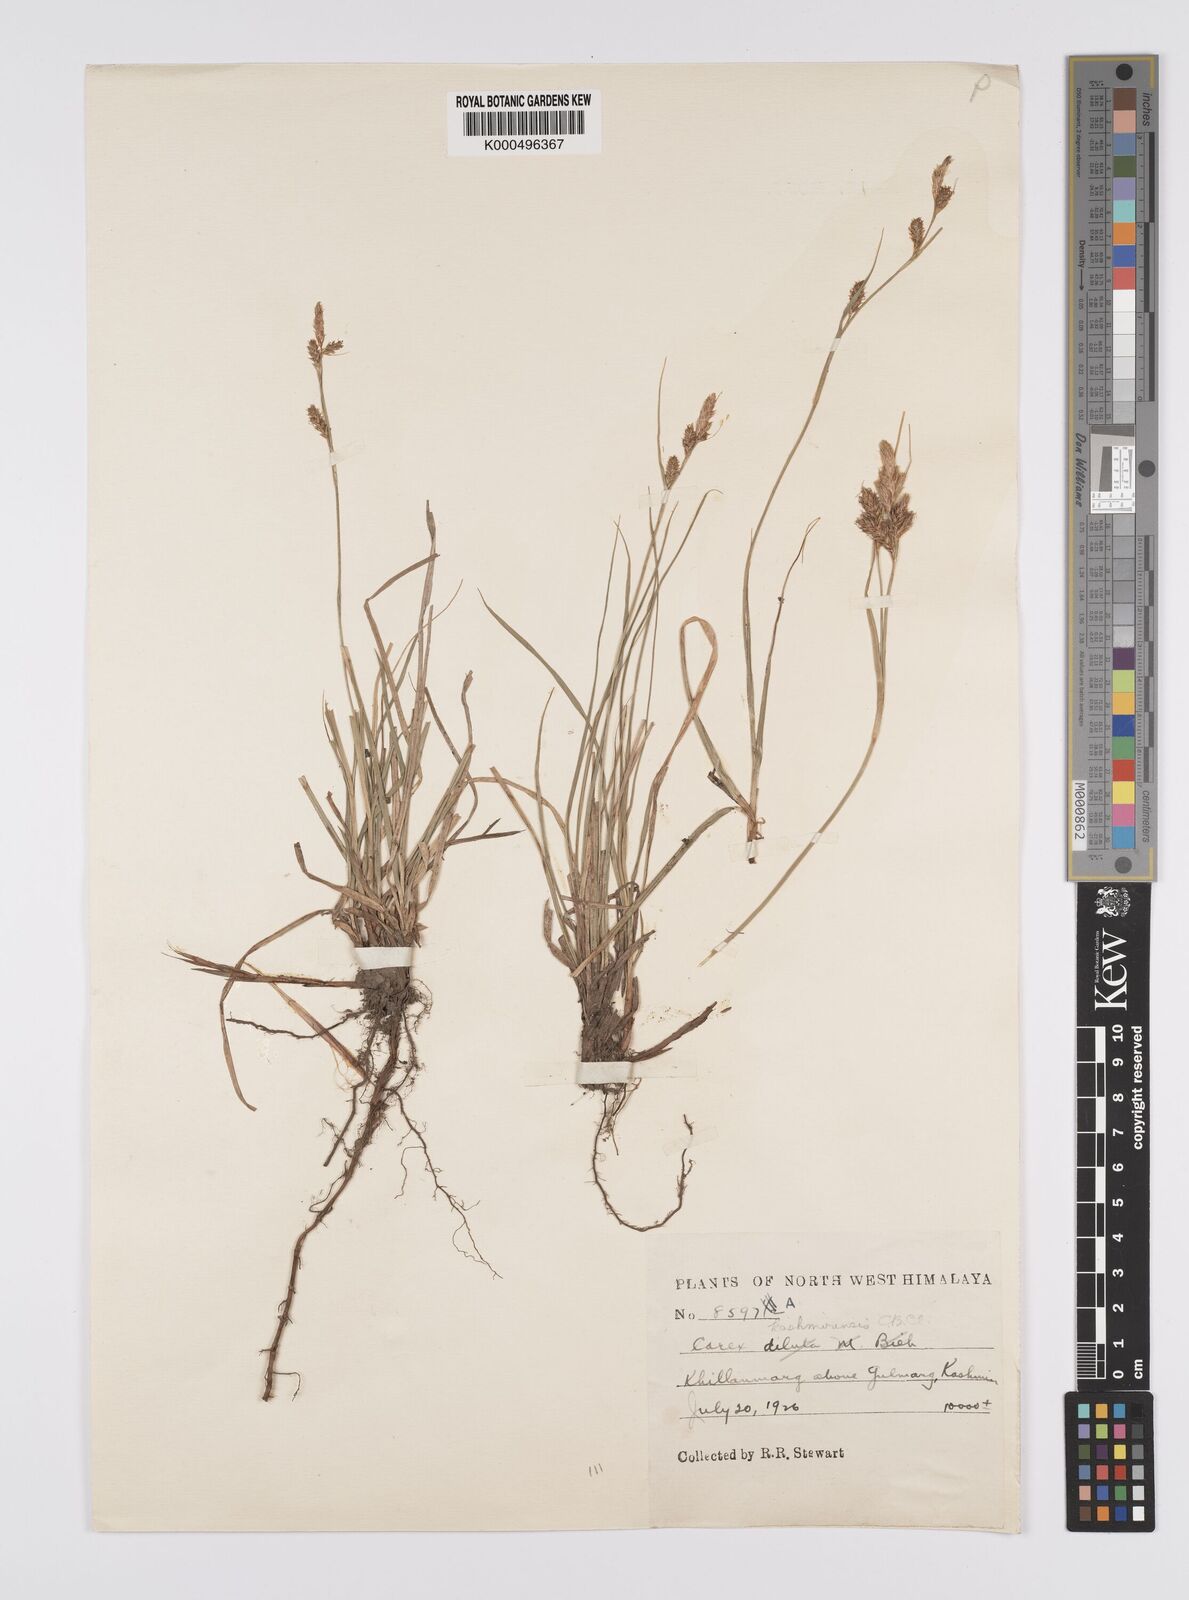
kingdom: Plantae
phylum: Tracheophyta
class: Liliopsida
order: Poales
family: Cyperaceae
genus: Carex
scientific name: Carex kashmirensis
